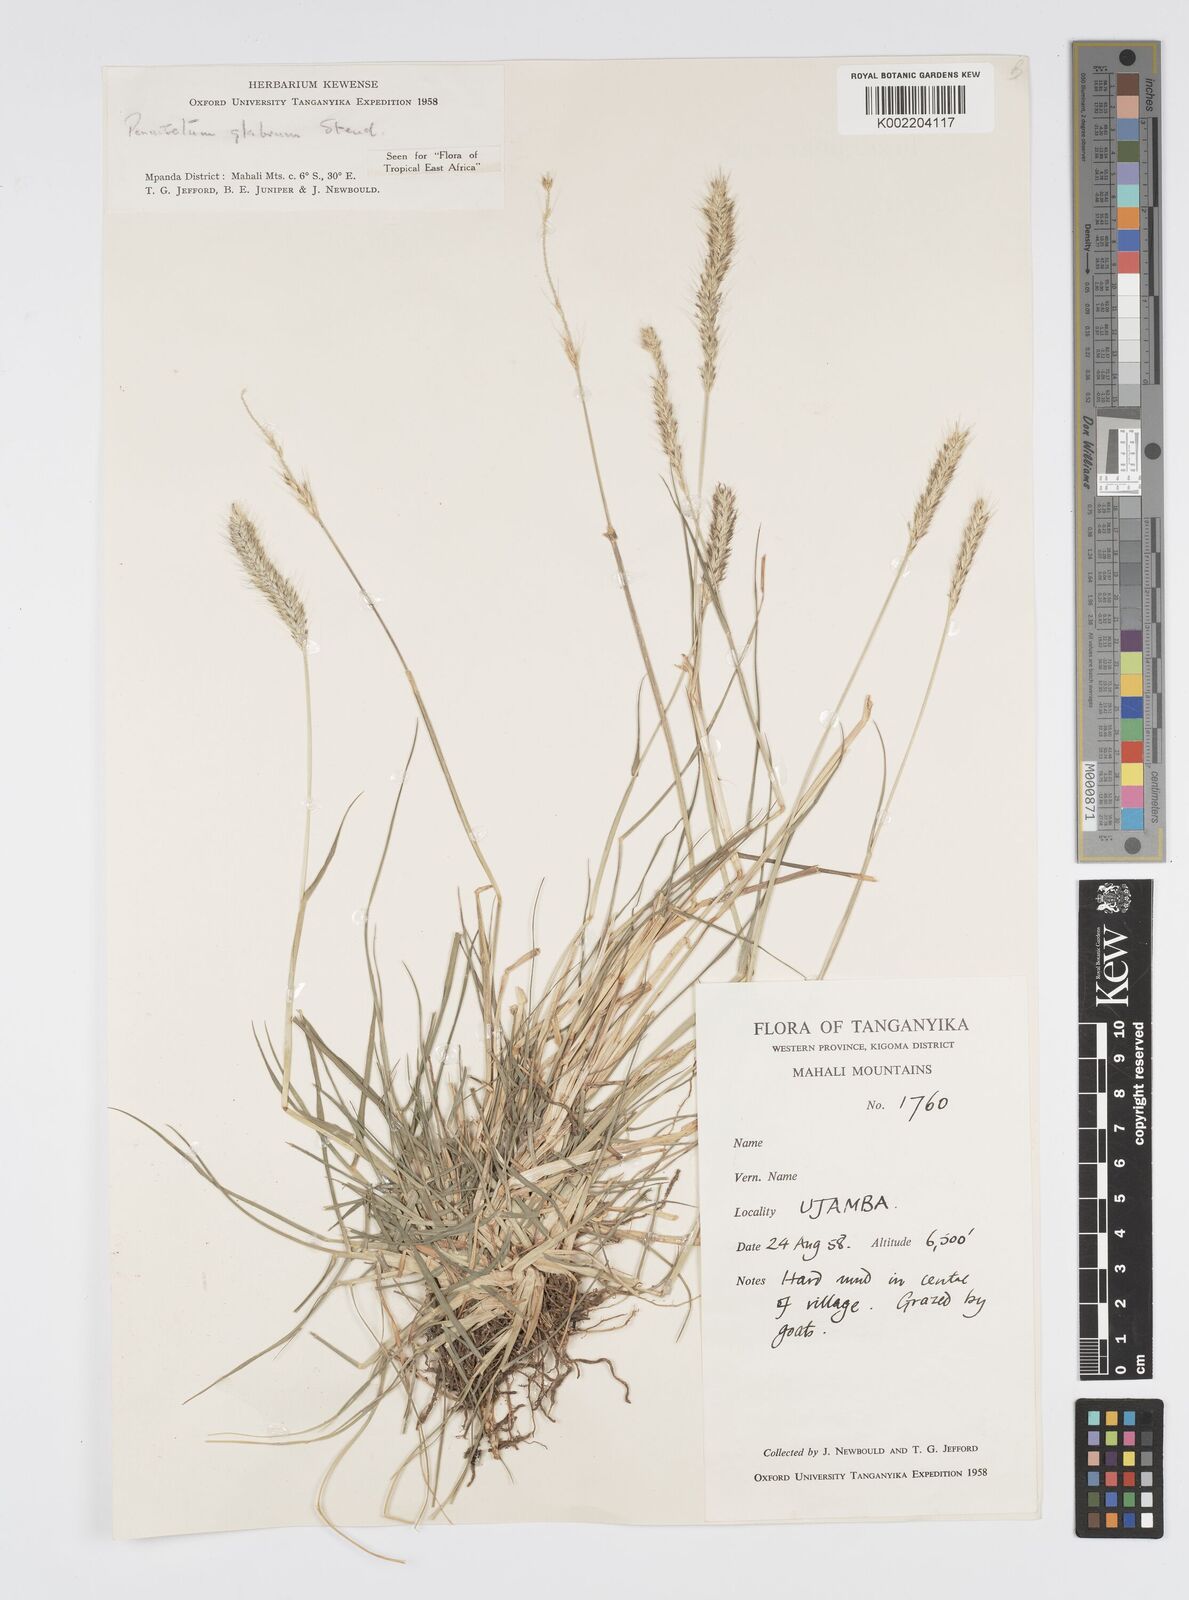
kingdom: Plantae
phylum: Tracheophyta
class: Liliopsida
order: Poales
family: Poaceae
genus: Cenchrus
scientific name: Cenchrus geniculatus
